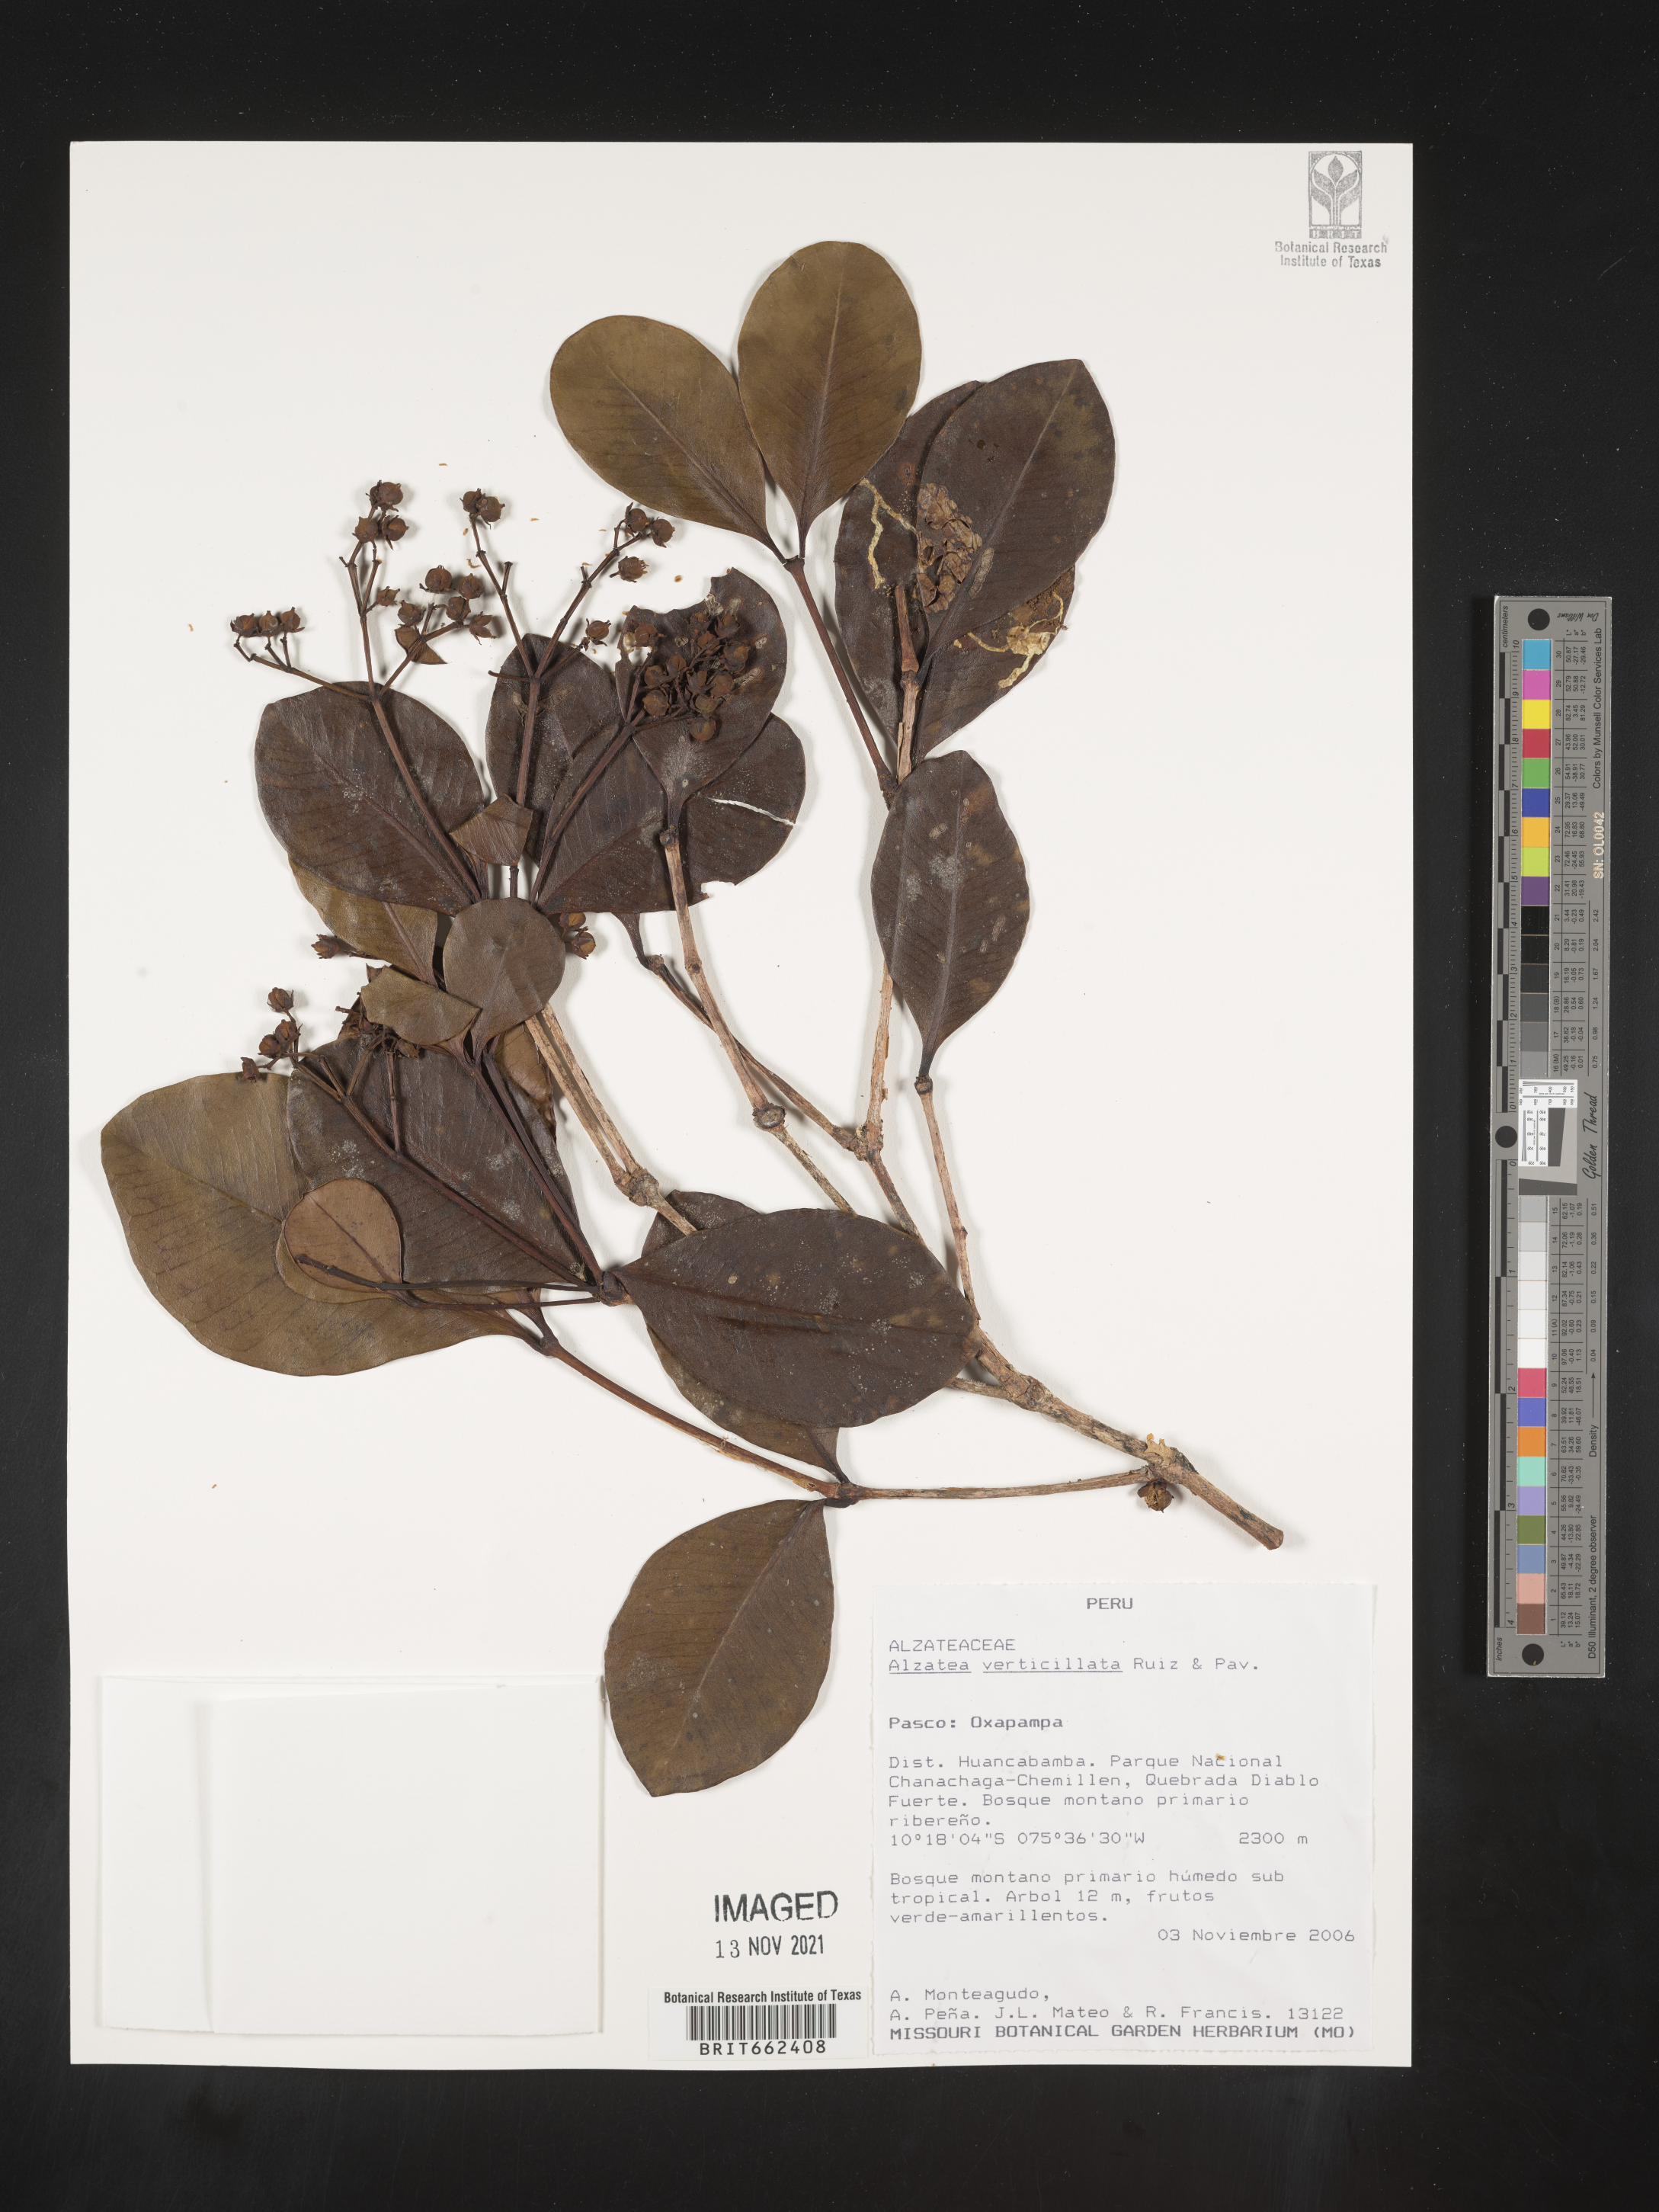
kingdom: Plantae
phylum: Tracheophyta
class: Magnoliopsida
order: Myrtales
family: Alzateaceae
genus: Alzatea
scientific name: Alzatea
